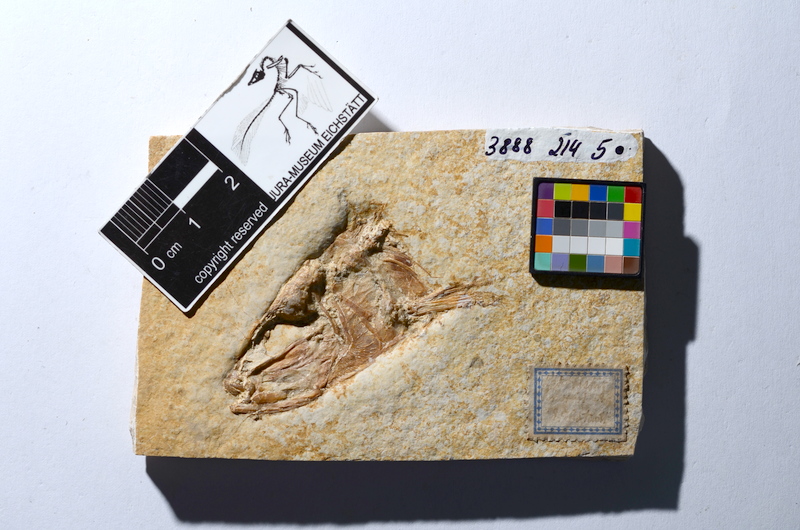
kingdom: Animalia
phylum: Chordata
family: Ascalaboidae
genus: Tharsis
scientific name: Tharsis dubius
